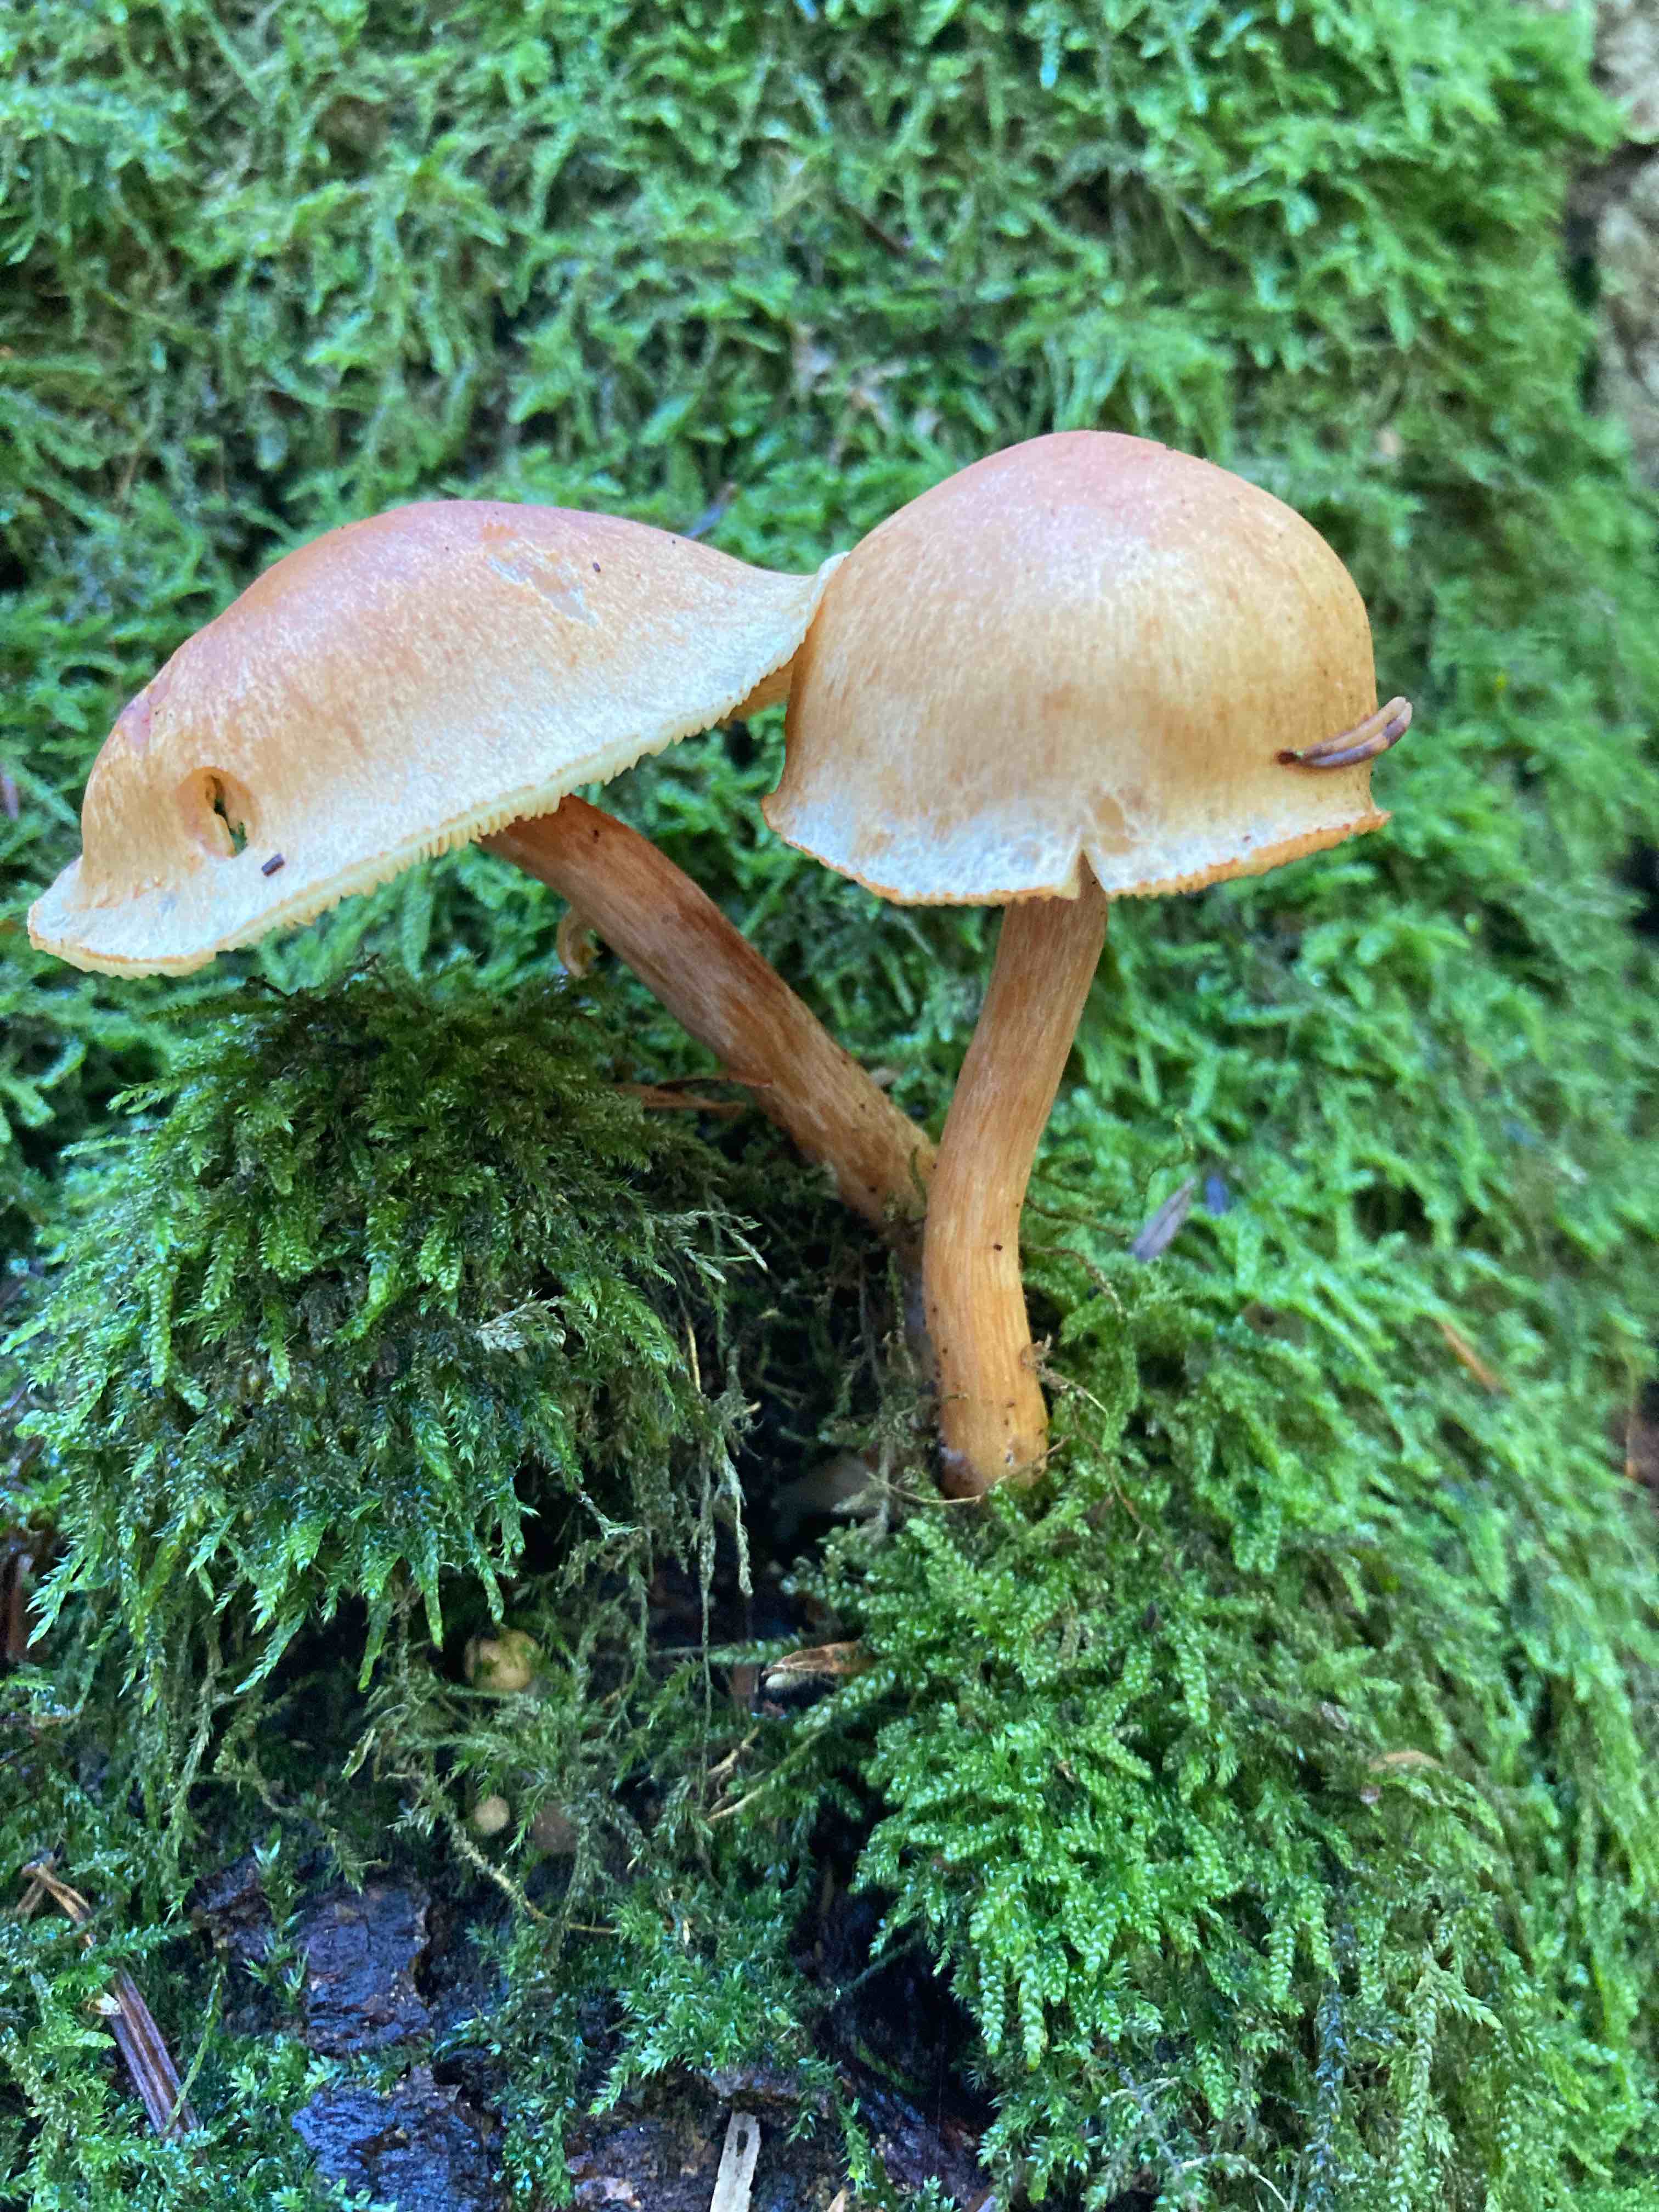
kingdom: Fungi
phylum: Basidiomycota
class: Agaricomycetes
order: Agaricales
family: Hymenogastraceae
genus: Gymnopilus
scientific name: Gymnopilus penetrans
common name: plettet flammehat
